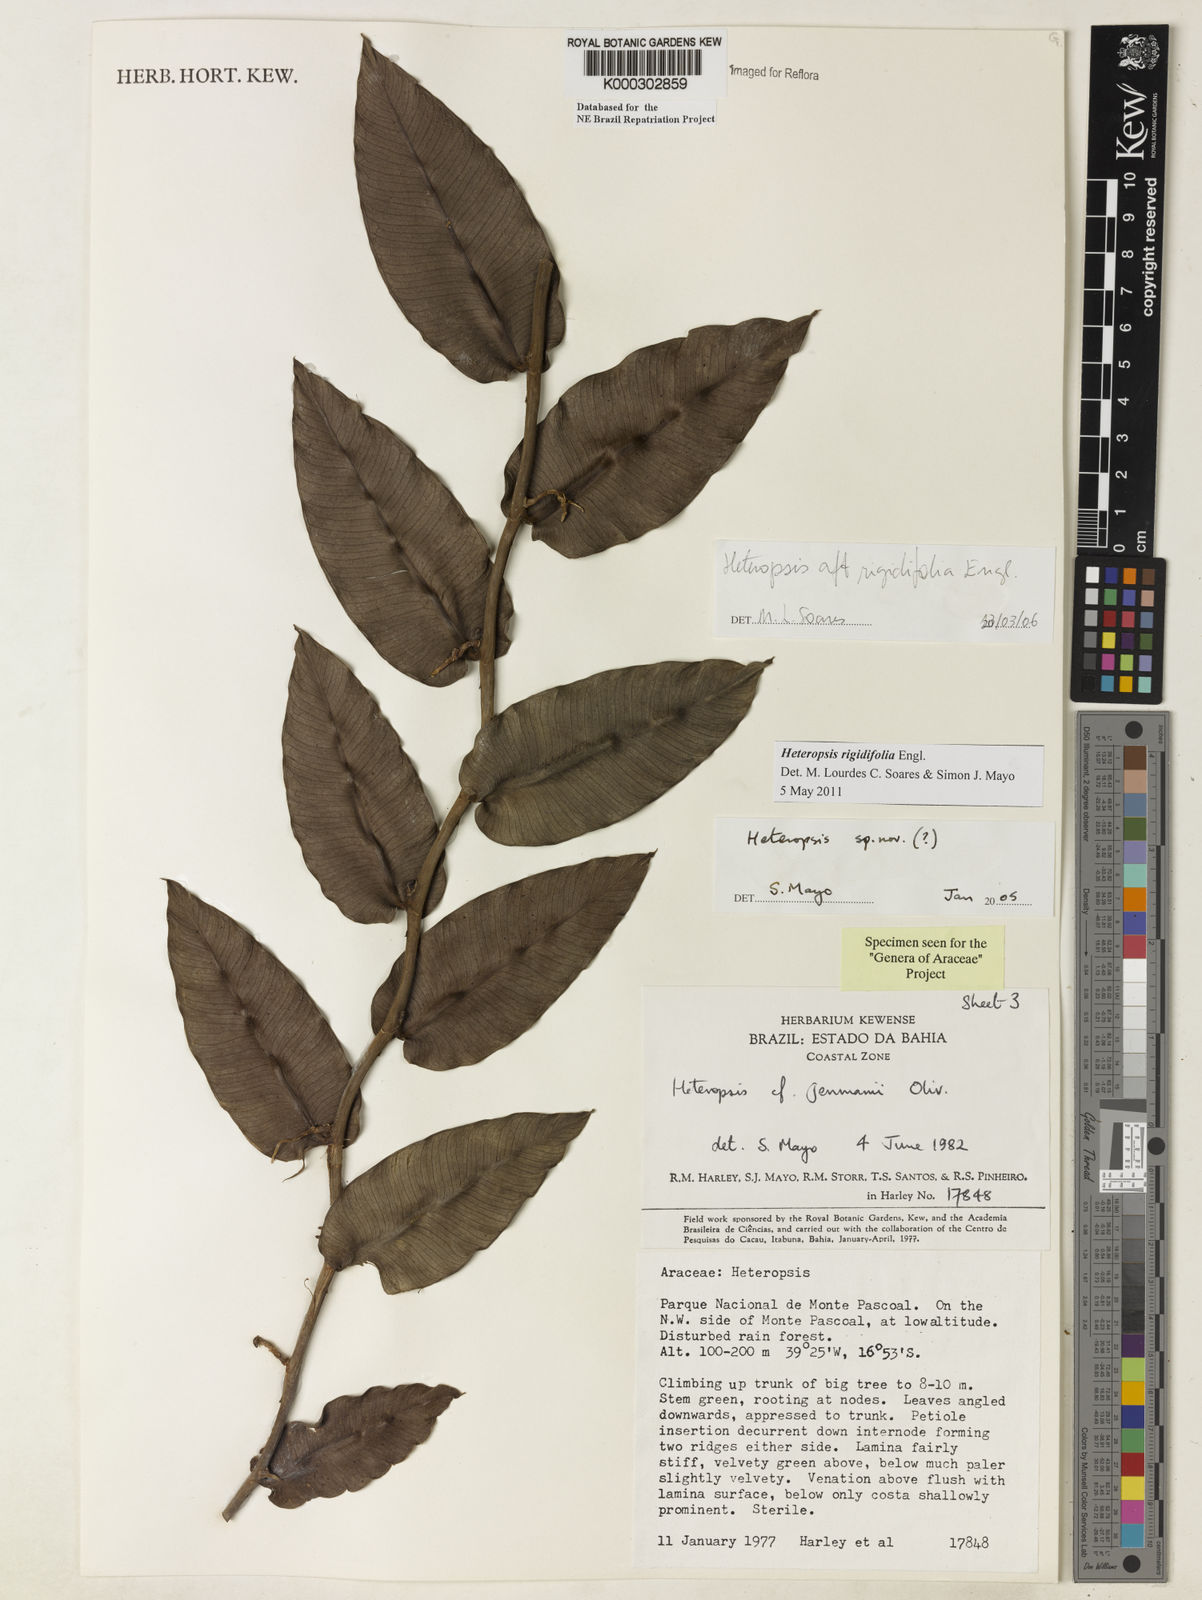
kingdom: Plantae
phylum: Tracheophyta
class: Liliopsida
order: Alismatales
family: Araceae
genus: Heteropsis
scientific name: Heteropsis
